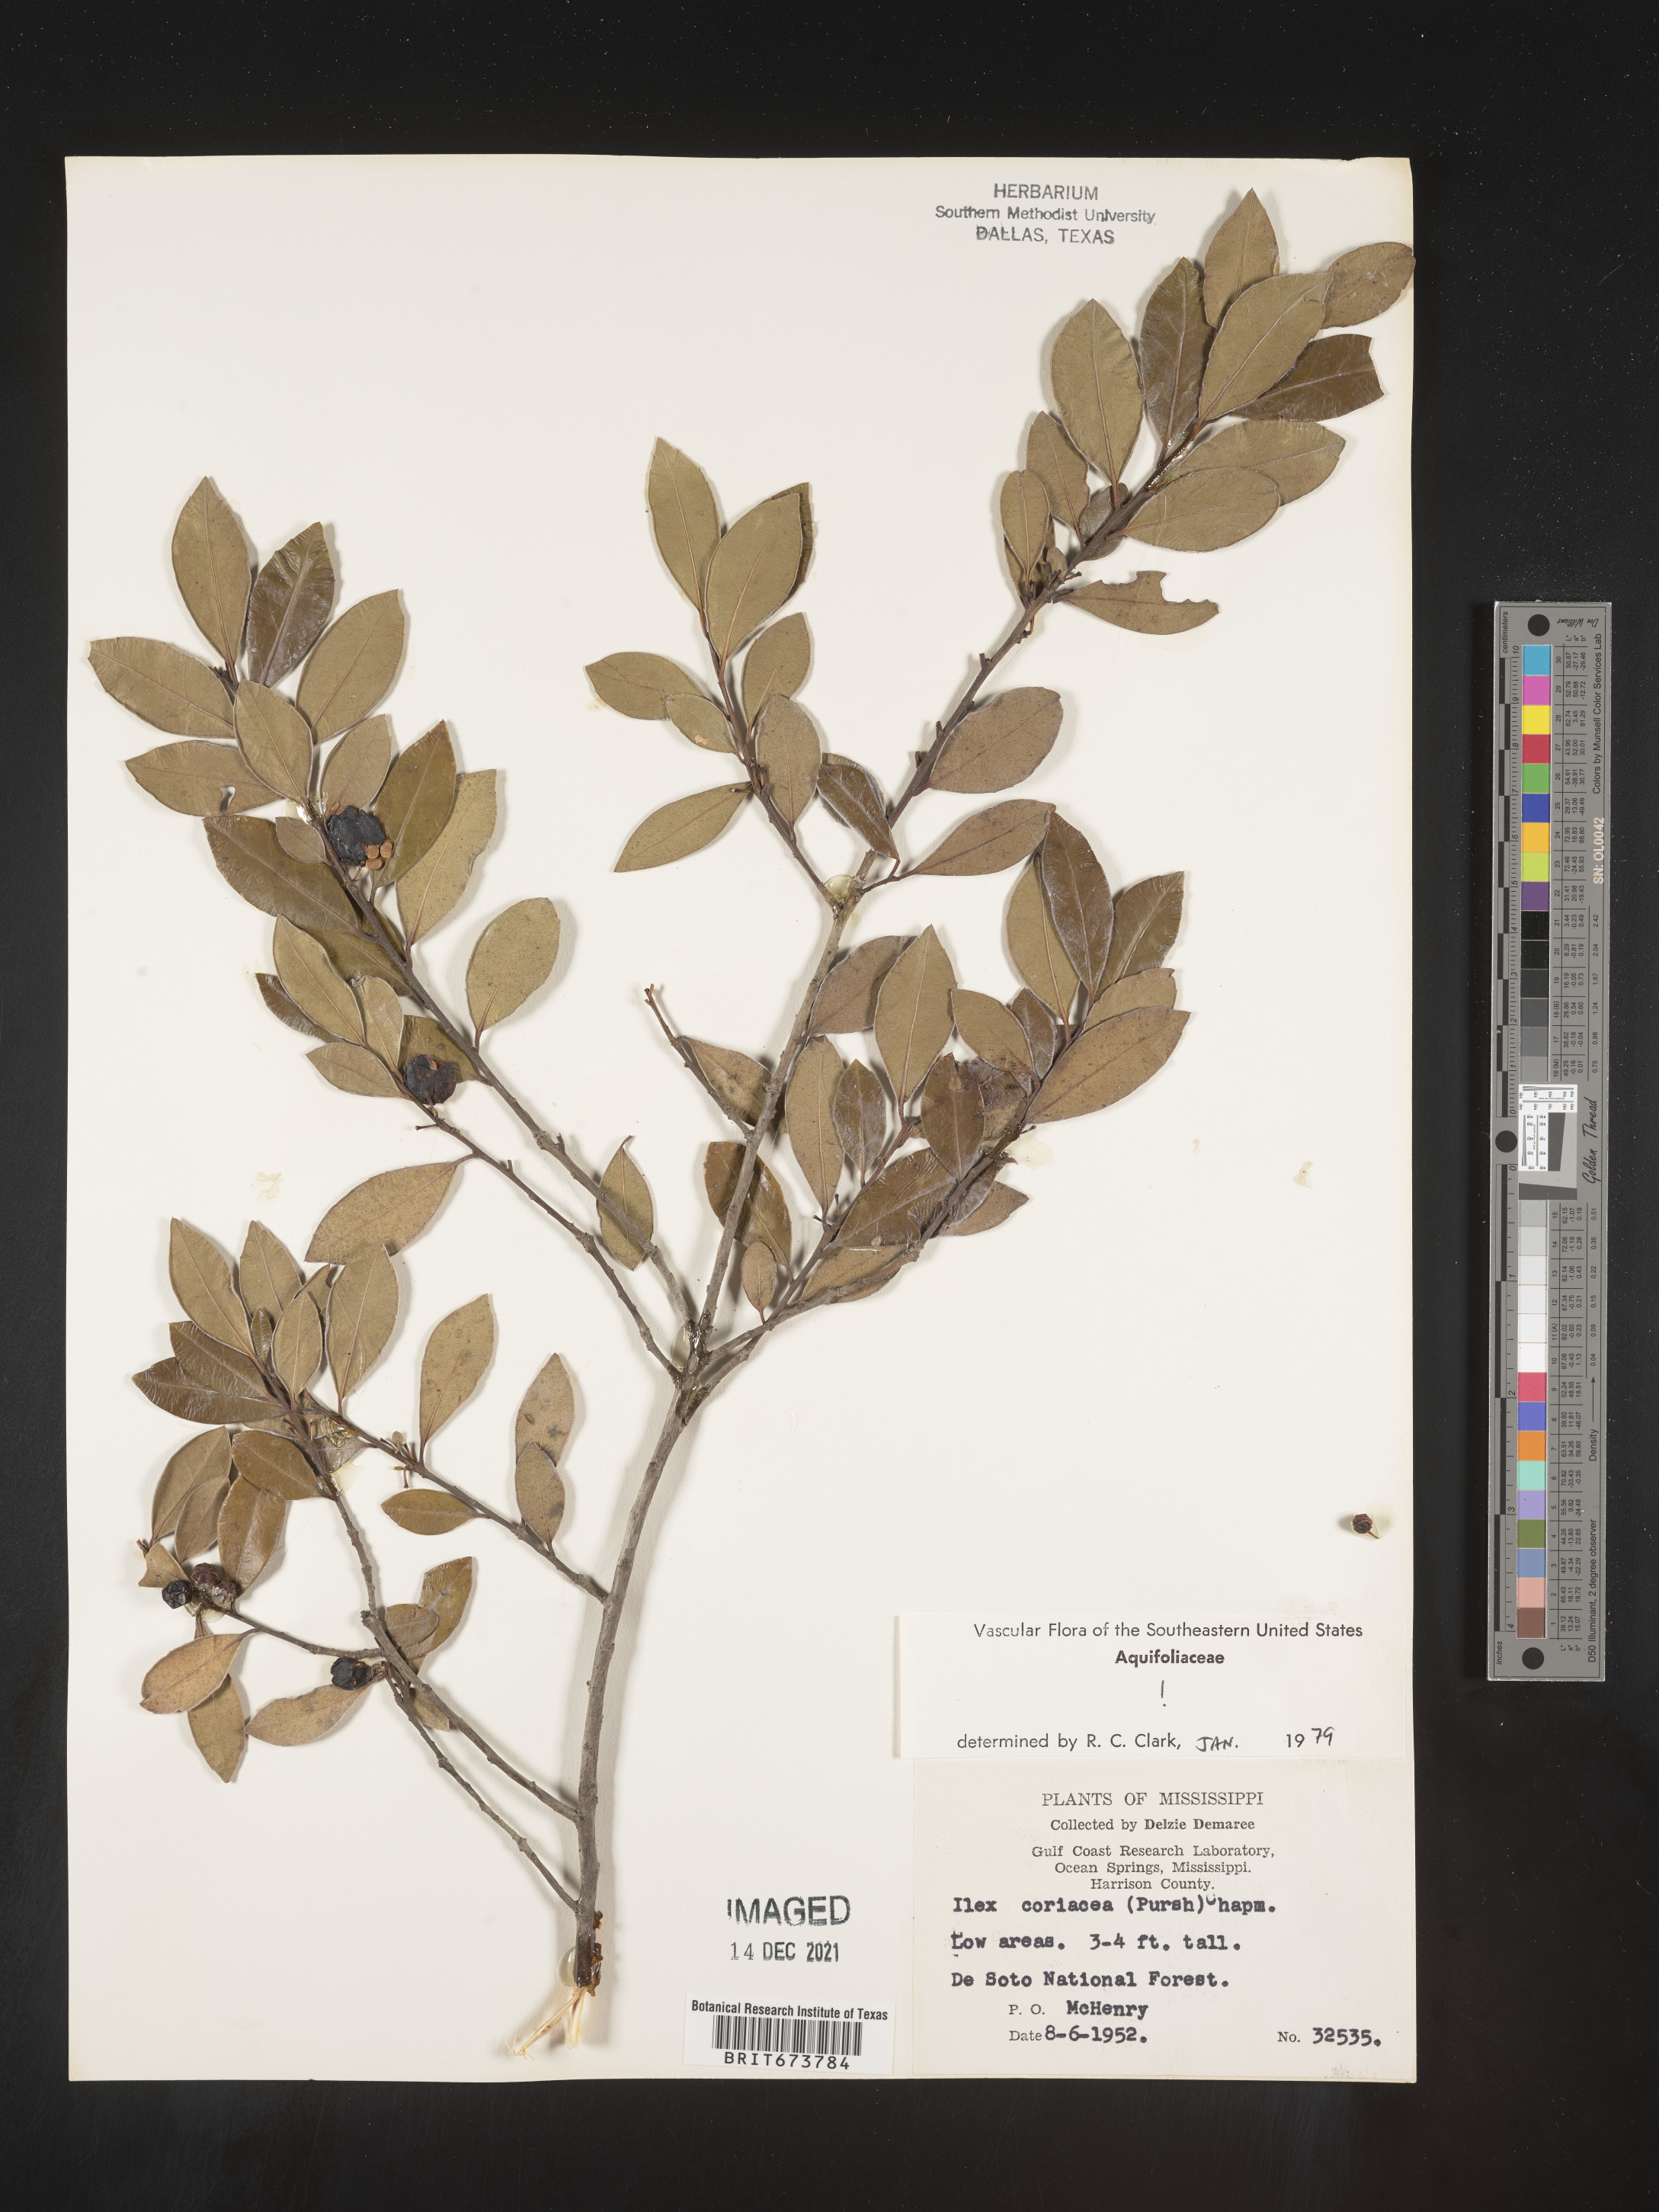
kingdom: Plantae
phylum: Tracheophyta
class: Magnoliopsida
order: Aquifoliales
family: Aquifoliaceae
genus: Ilex
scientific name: Ilex coriacea
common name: Sweet gallberry
